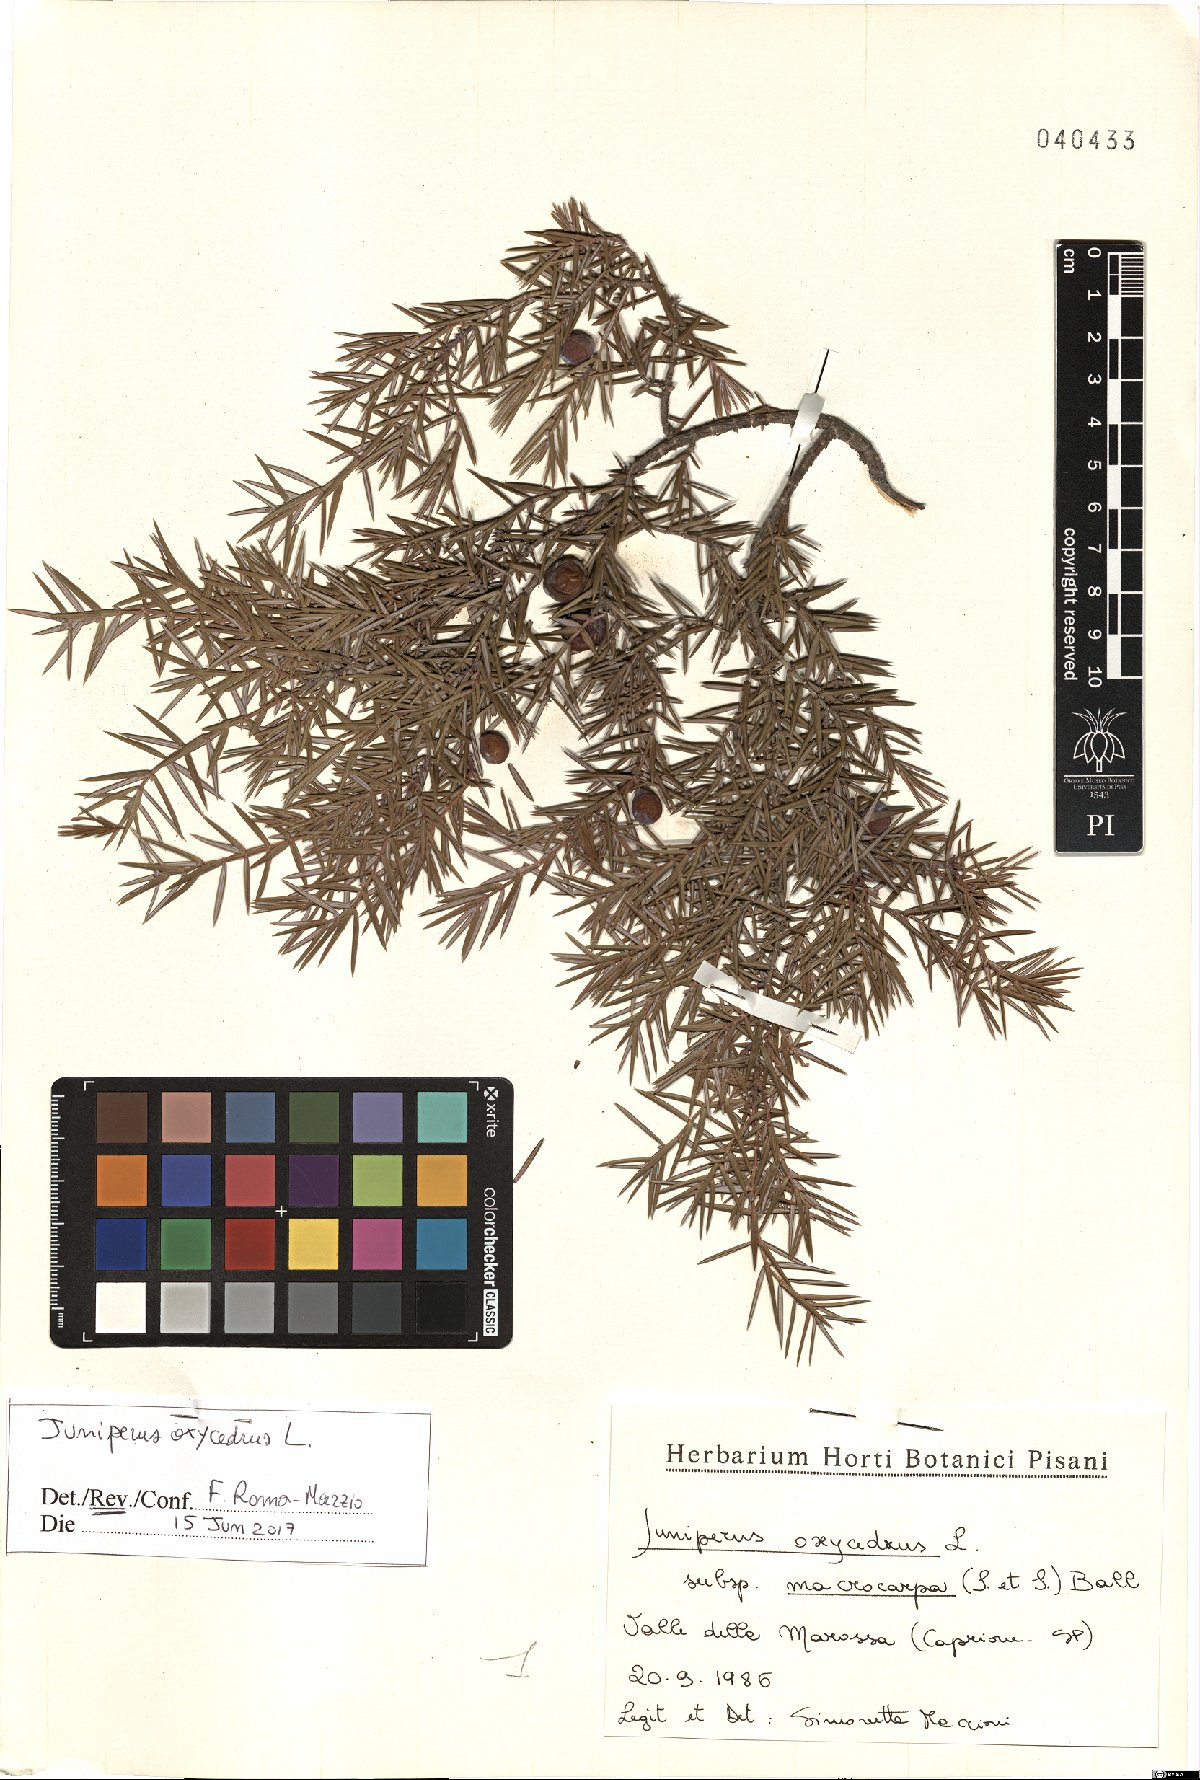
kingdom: Plantae
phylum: Tracheophyta
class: Pinopsida
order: Pinales
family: Cupressaceae
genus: Juniperus
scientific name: Juniperus oxycedrus
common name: Prickly juniper
